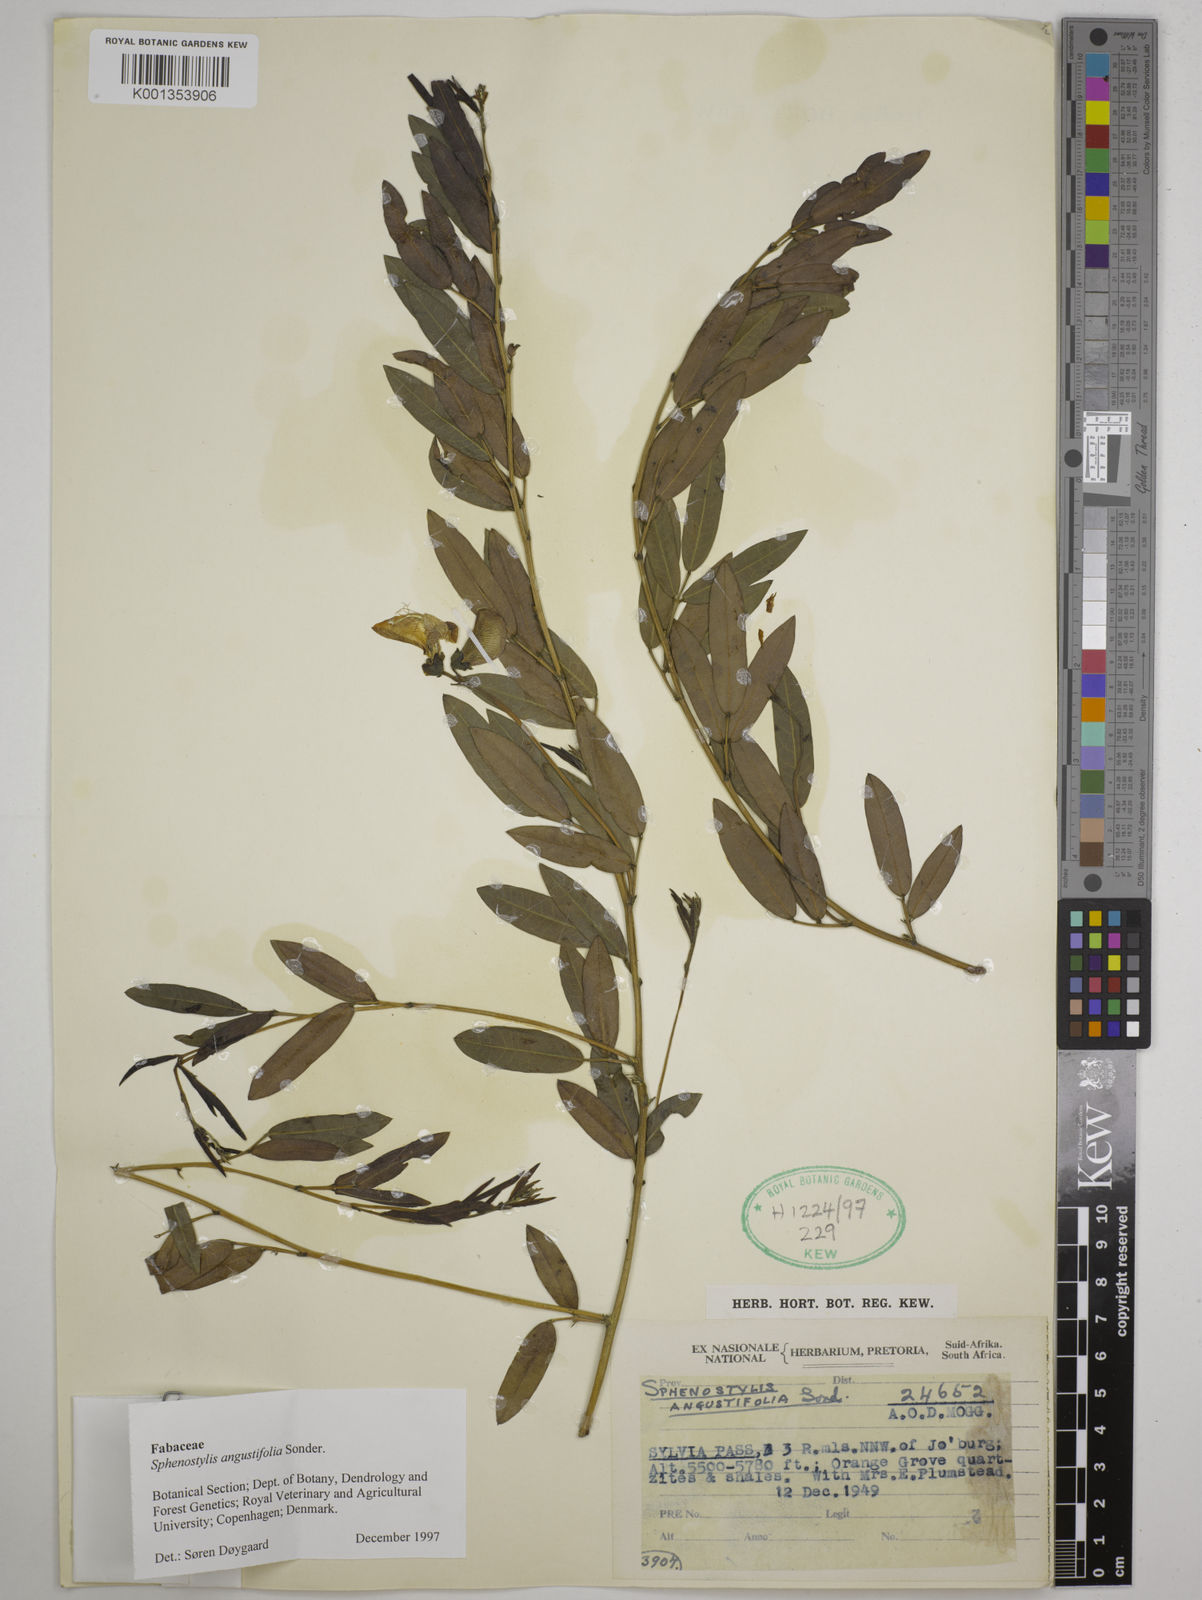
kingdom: Plantae
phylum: Tracheophyta
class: Magnoliopsida
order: Fabales
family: Fabaceae
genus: Sphenostylis
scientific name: Sphenostylis angustifolia
